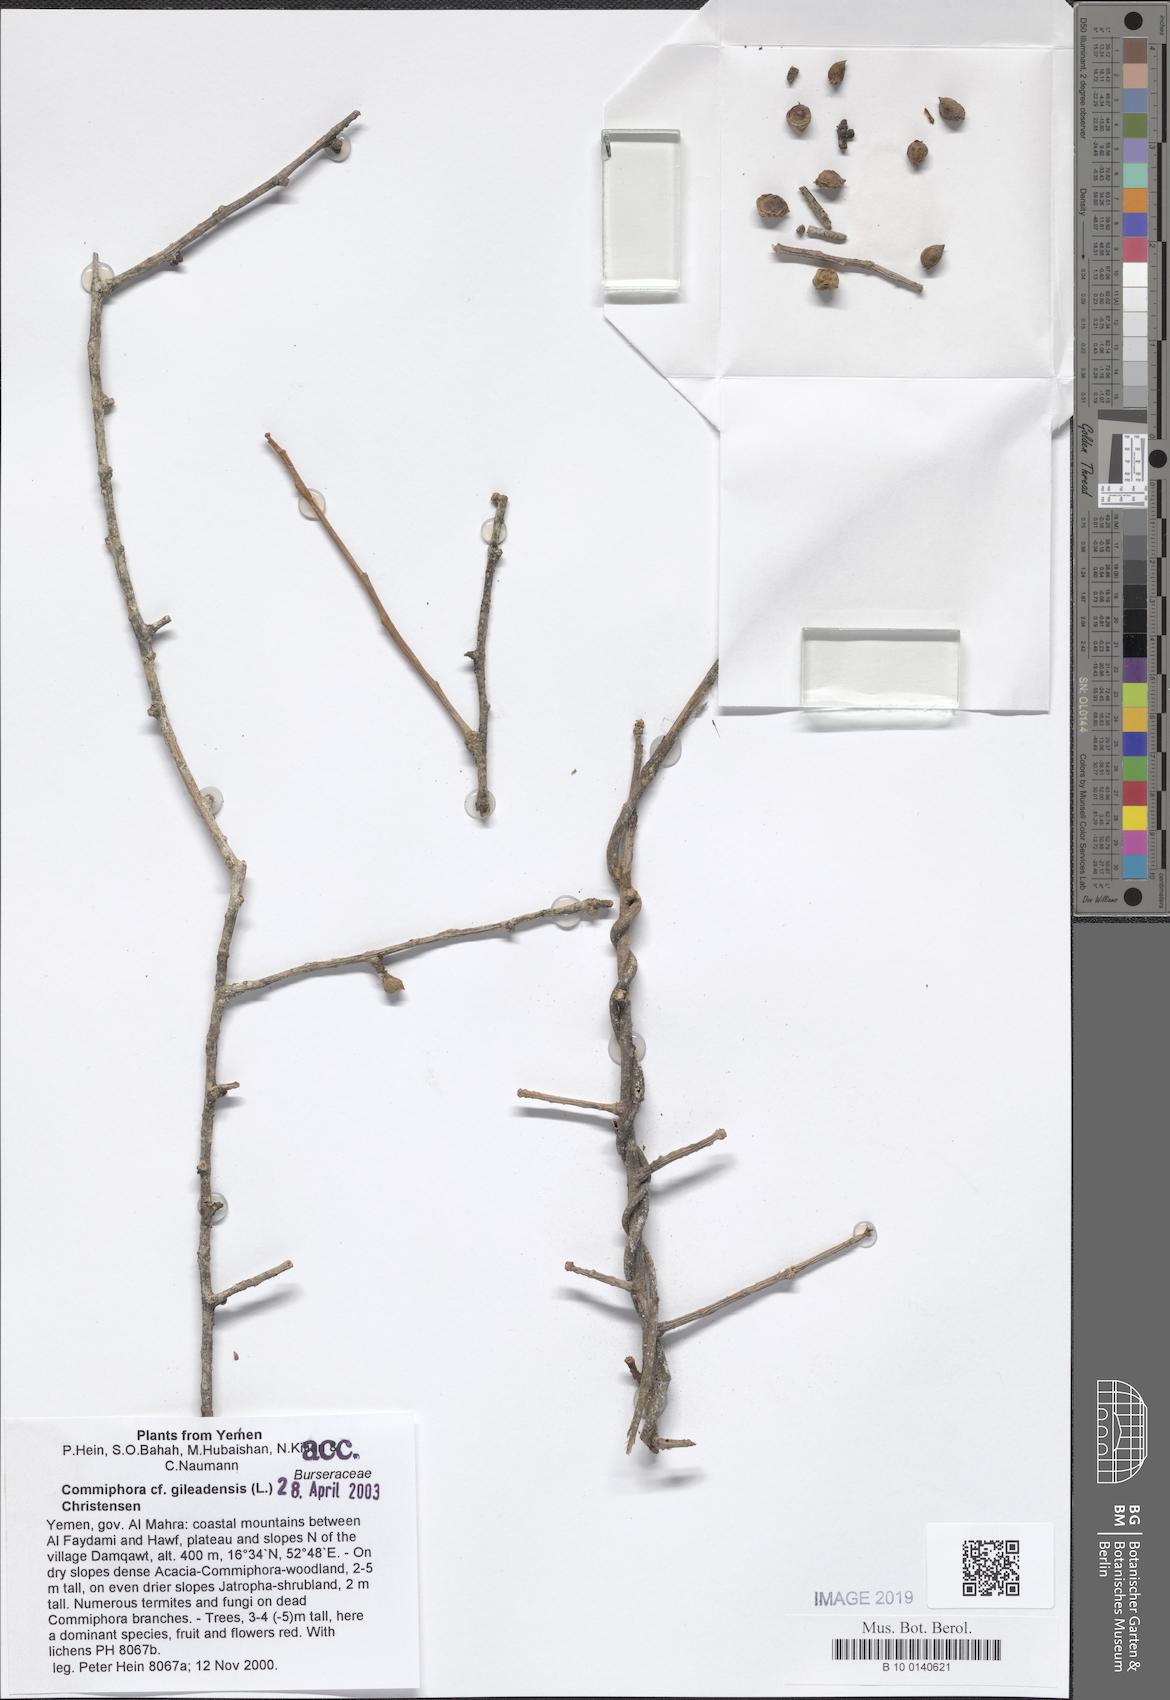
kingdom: Plantae
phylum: Tracheophyta
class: Magnoliopsida
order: Sapindales
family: Burseraceae
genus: Commiphora
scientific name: Commiphora gileadensis
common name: Balm-of-gilead
